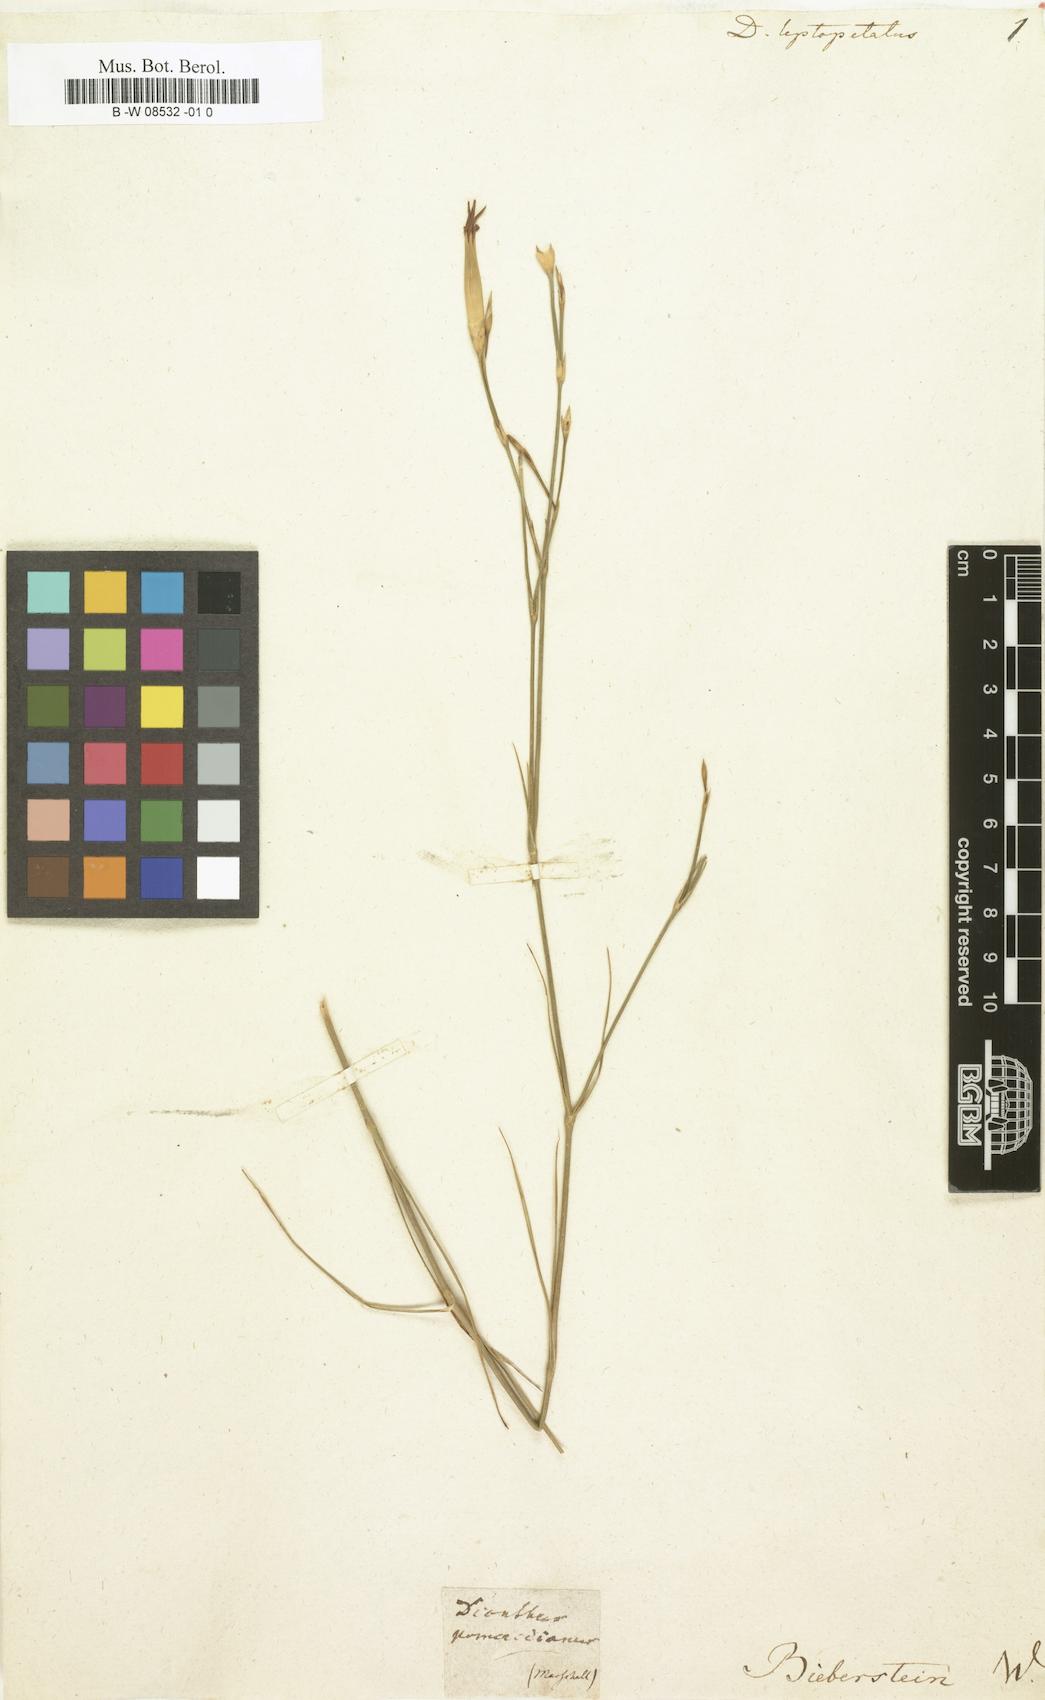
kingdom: Plantae
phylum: Tracheophyta
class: Magnoliopsida
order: Caryophyllales
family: Caryophyllaceae
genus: Dianthus
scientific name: Dianthus leptopetalus
